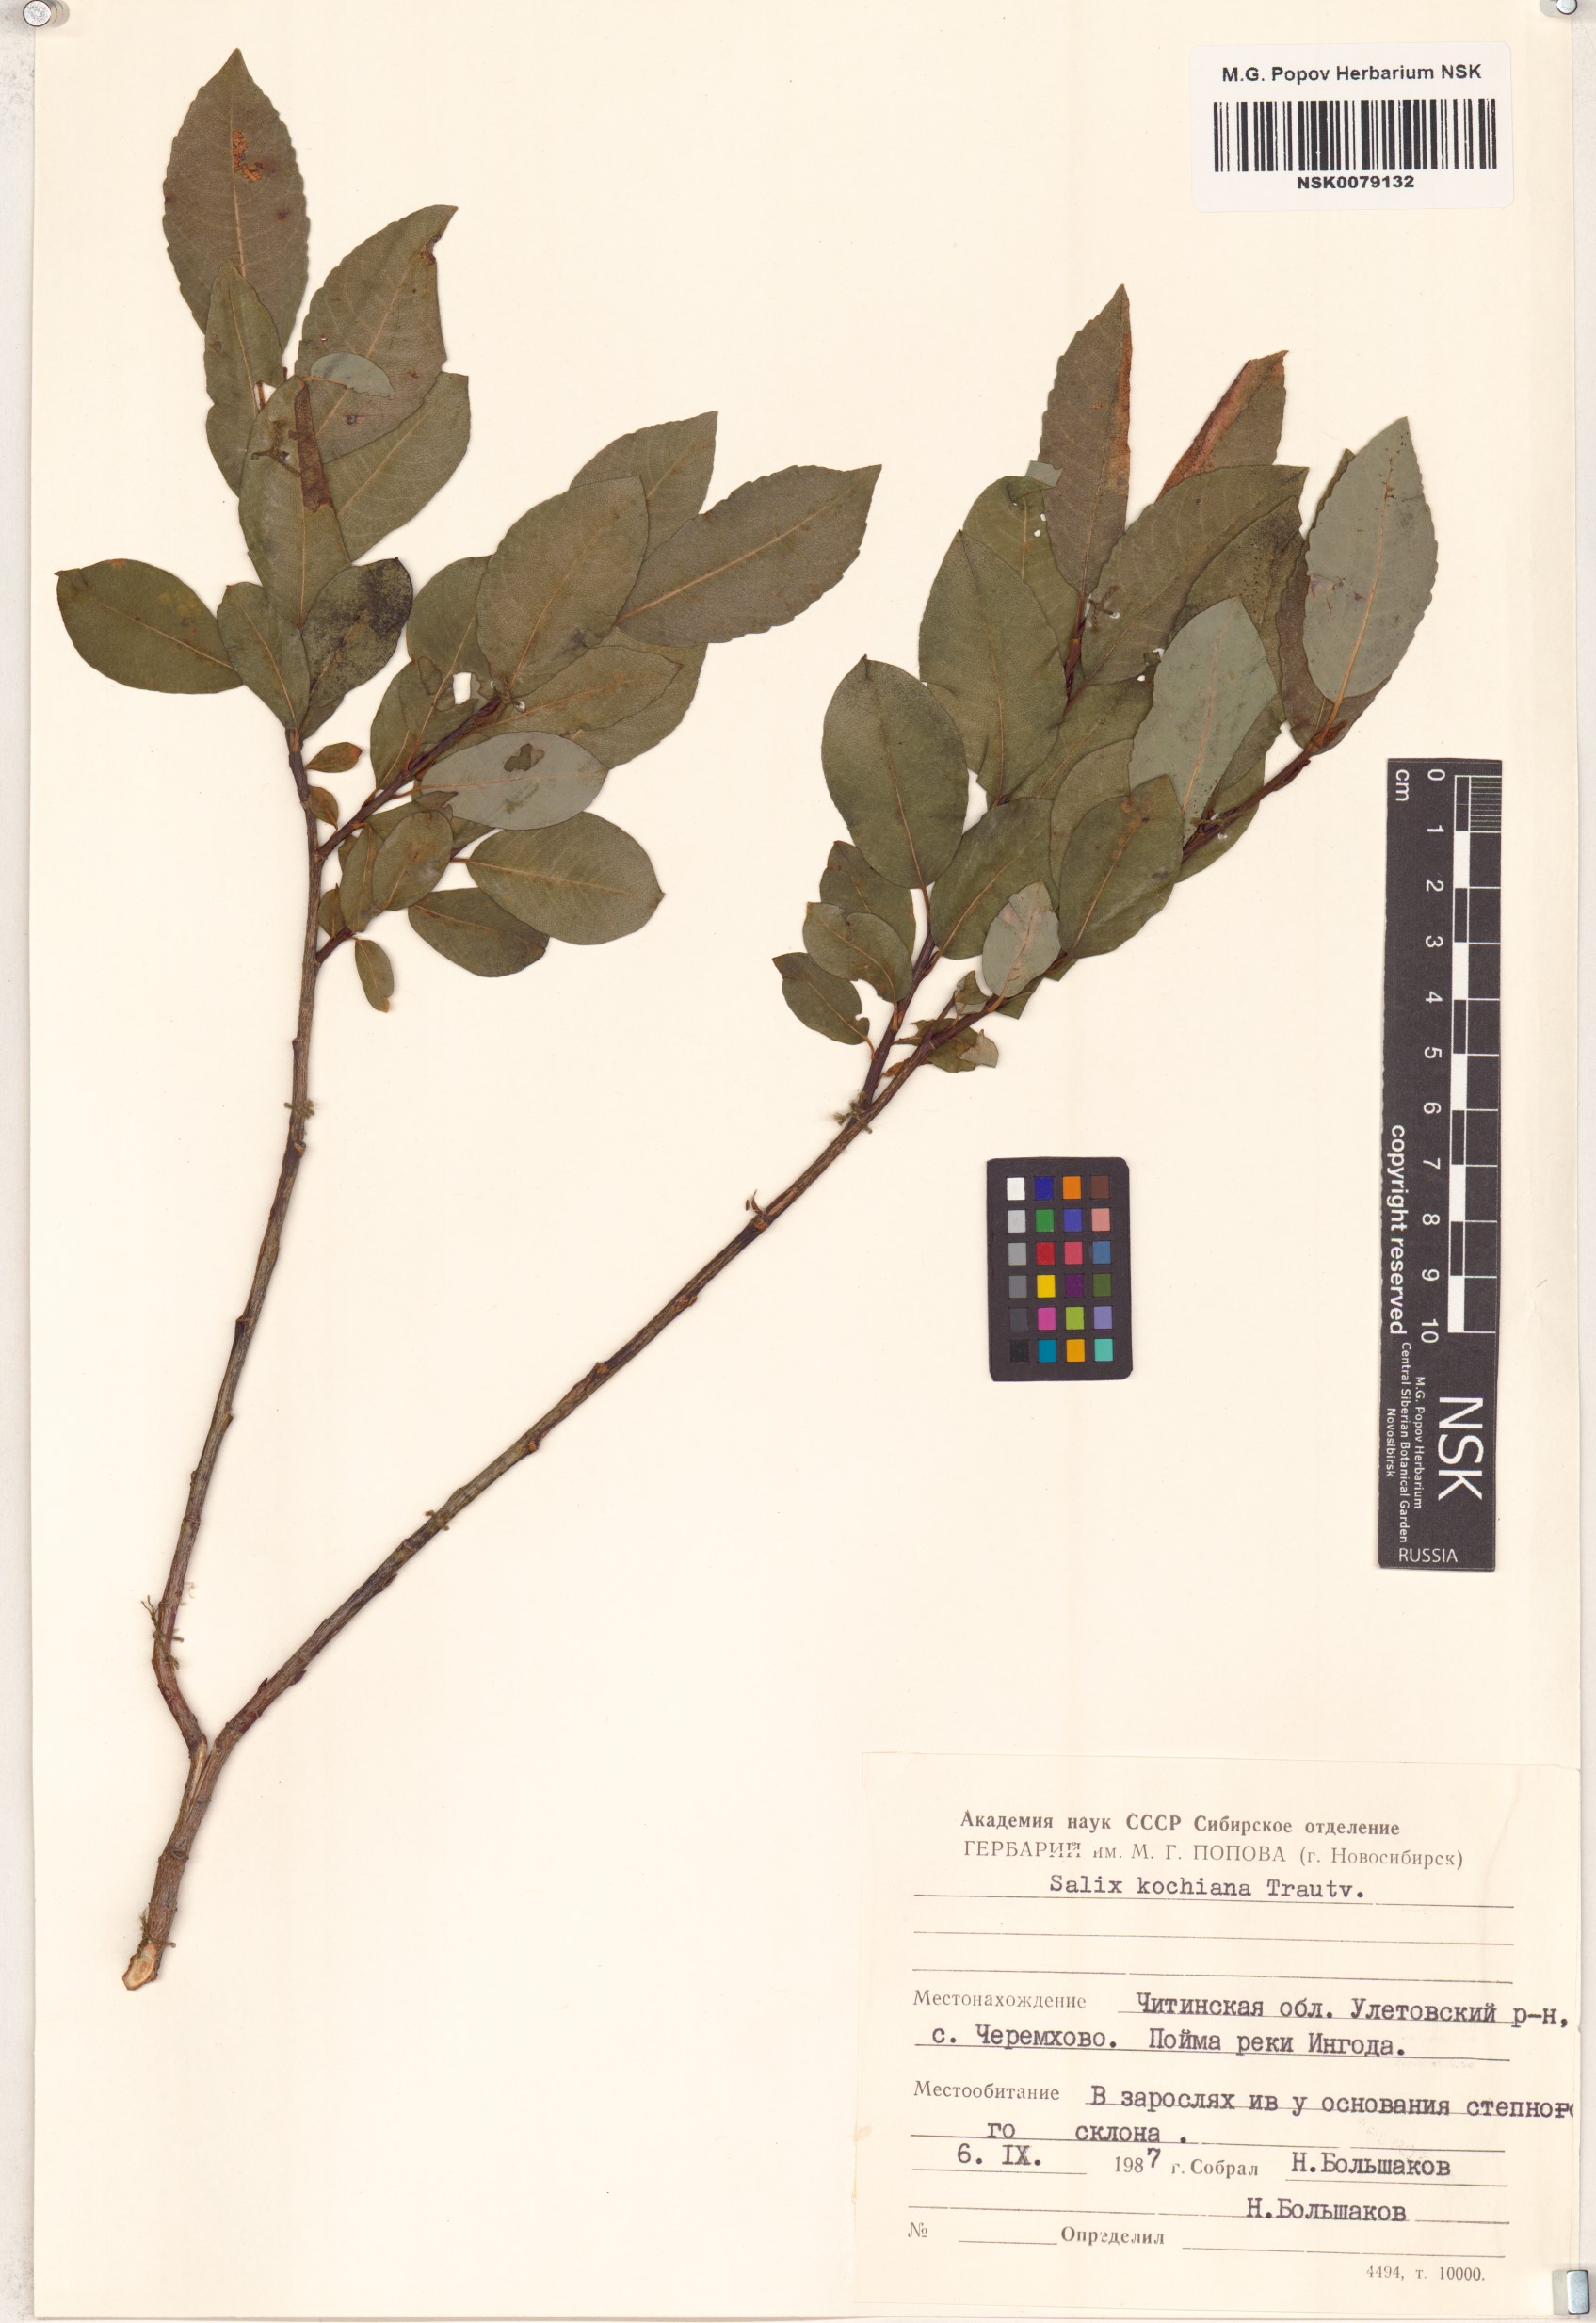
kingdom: Plantae
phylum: Tracheophyta
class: Magnoliopsida
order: Malpighiales
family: Salicaceae
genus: Salix
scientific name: Salix kochiana
